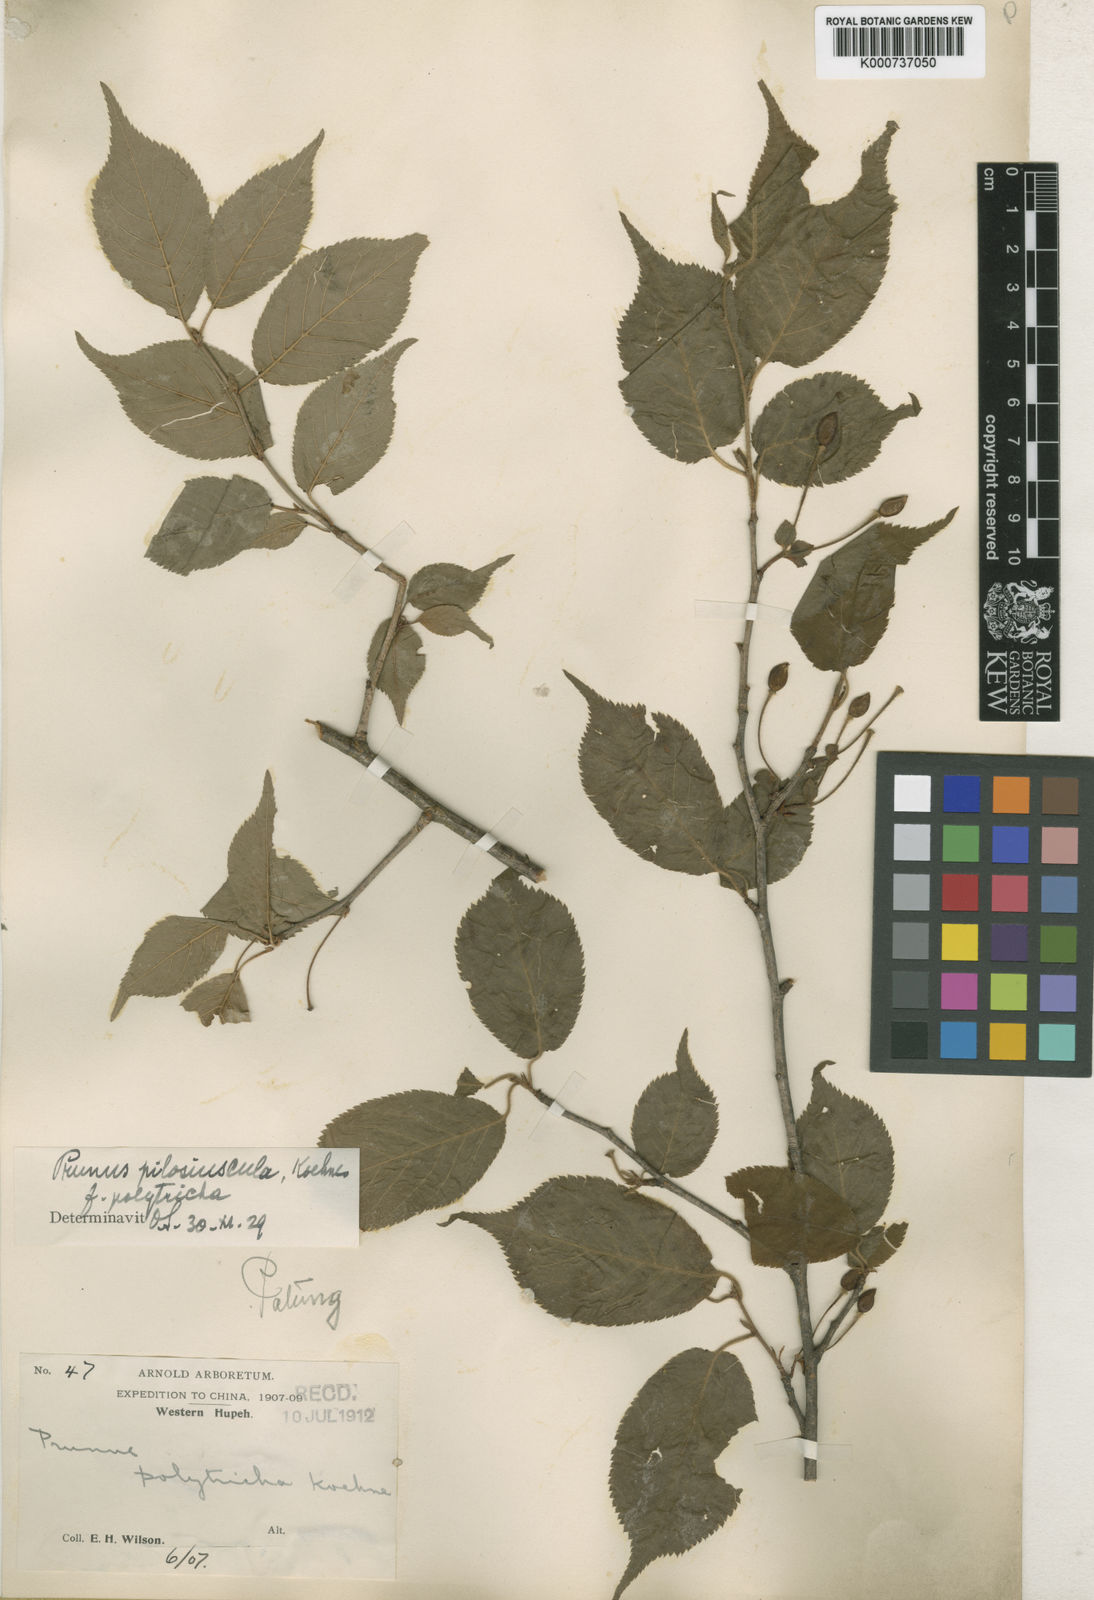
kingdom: Plantae
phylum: Tracheophyta
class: Magnoliopsida
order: Rosales
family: Rosaceae
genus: Prunus
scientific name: Prunus
